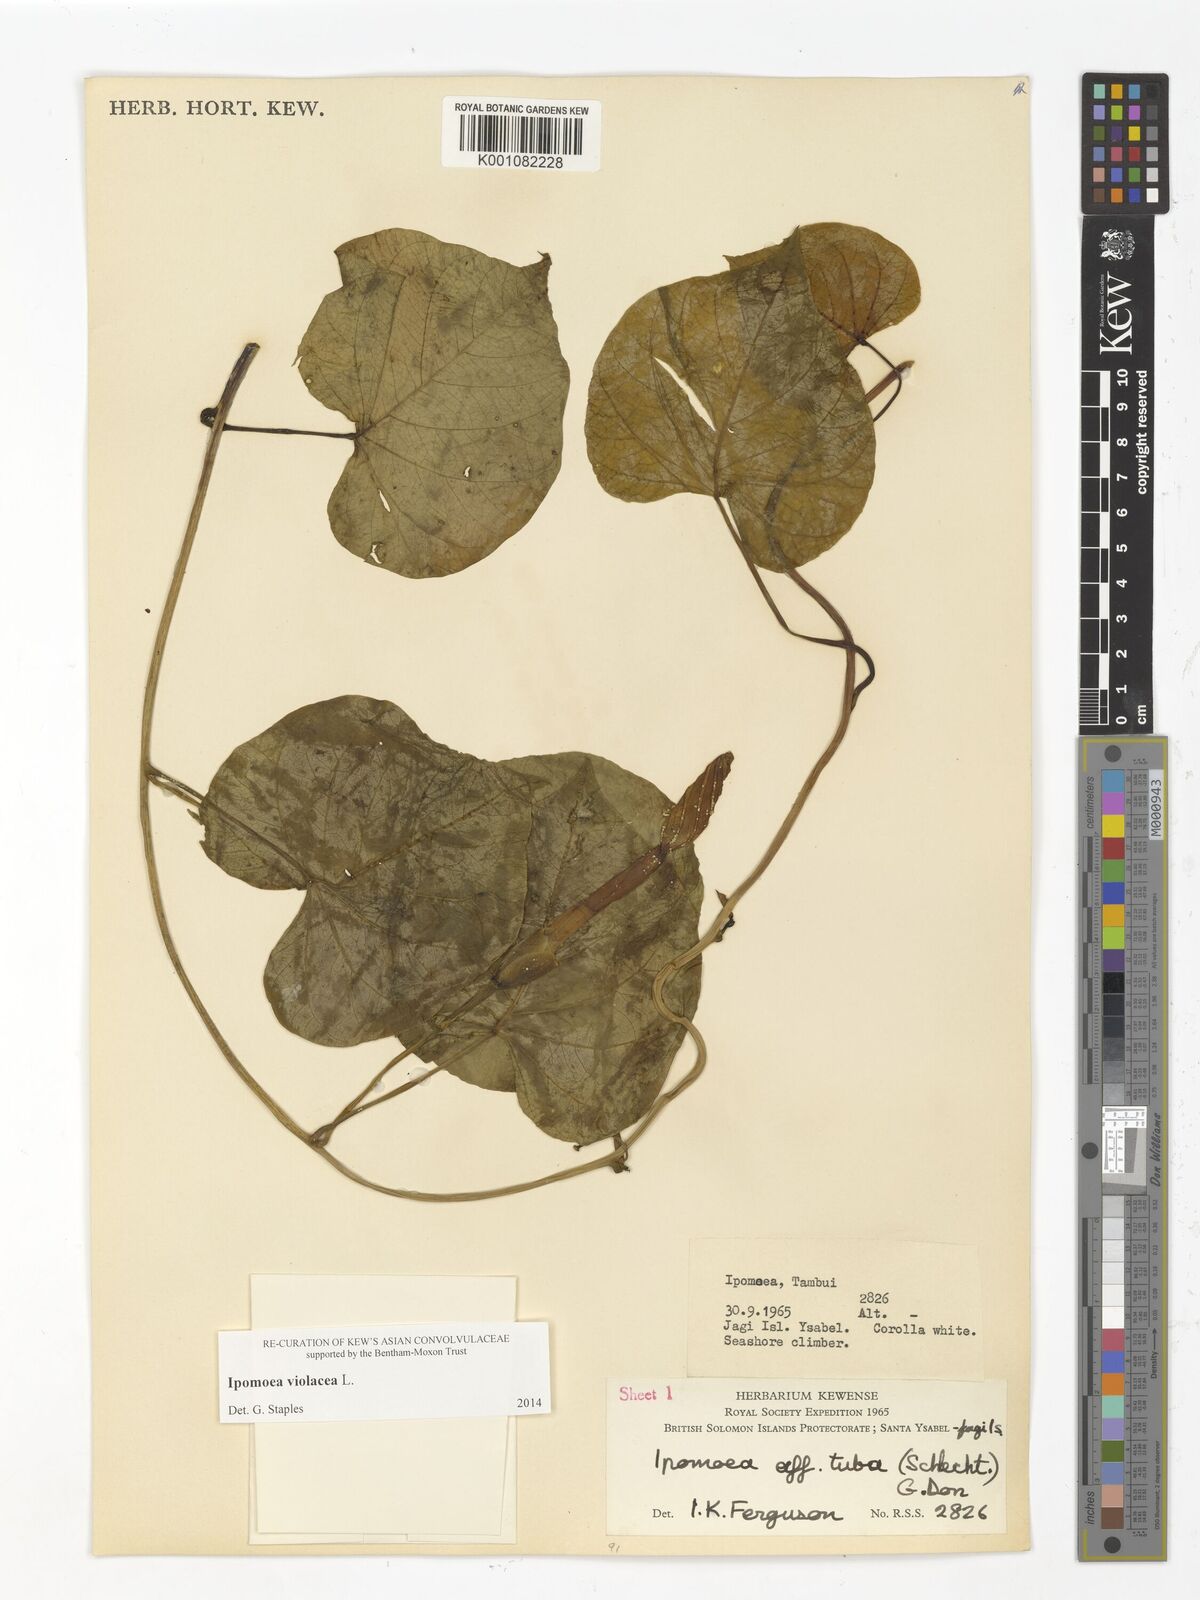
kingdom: Plantae
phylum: Tracheophyta
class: Magnoliopsida
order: Solanales
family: Convolvulaceae
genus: Ipomoea
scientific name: Ipomoea violacea
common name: Beach moonflower
